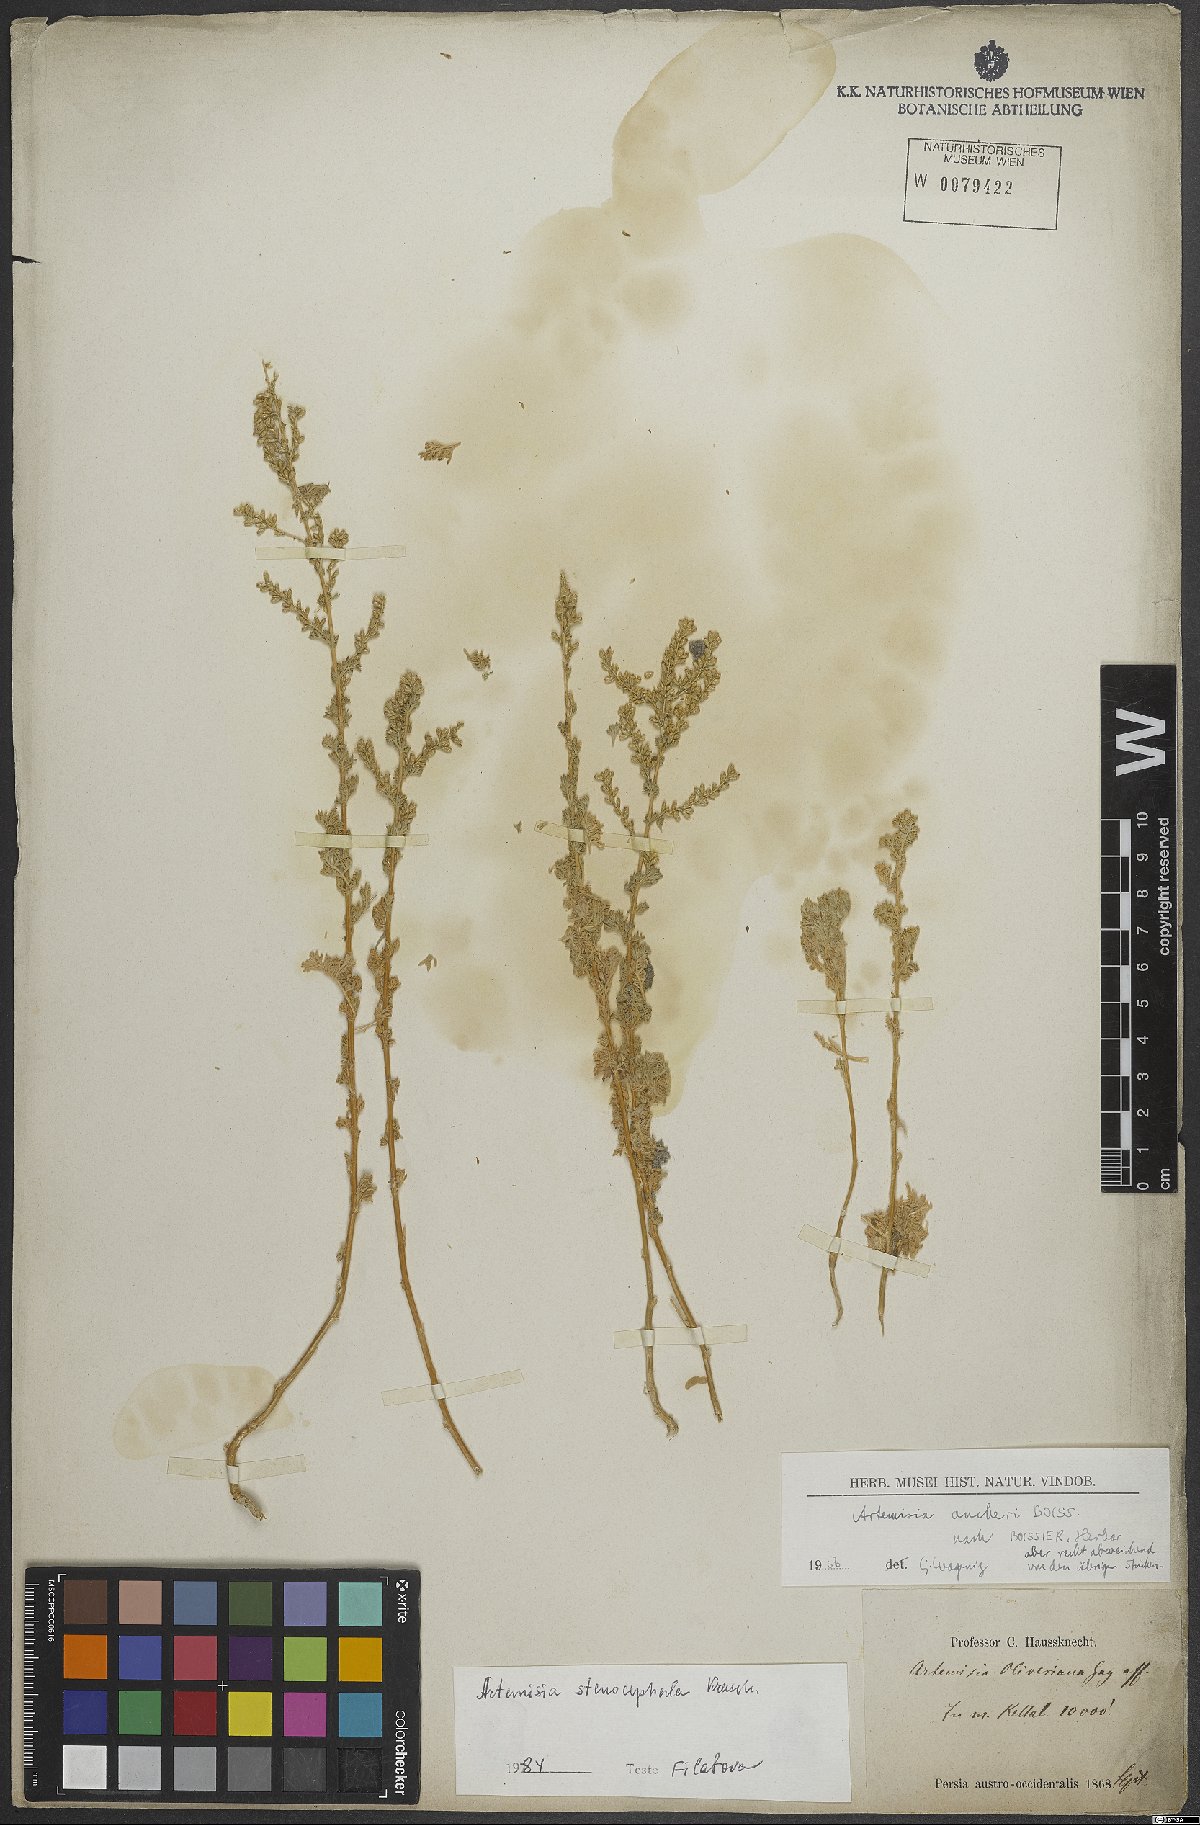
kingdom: Plantae
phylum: Tracheophyta
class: Magnoliopsida
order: Asterales
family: Asteraceae
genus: Artemisia
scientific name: Artemisia stenocephala
